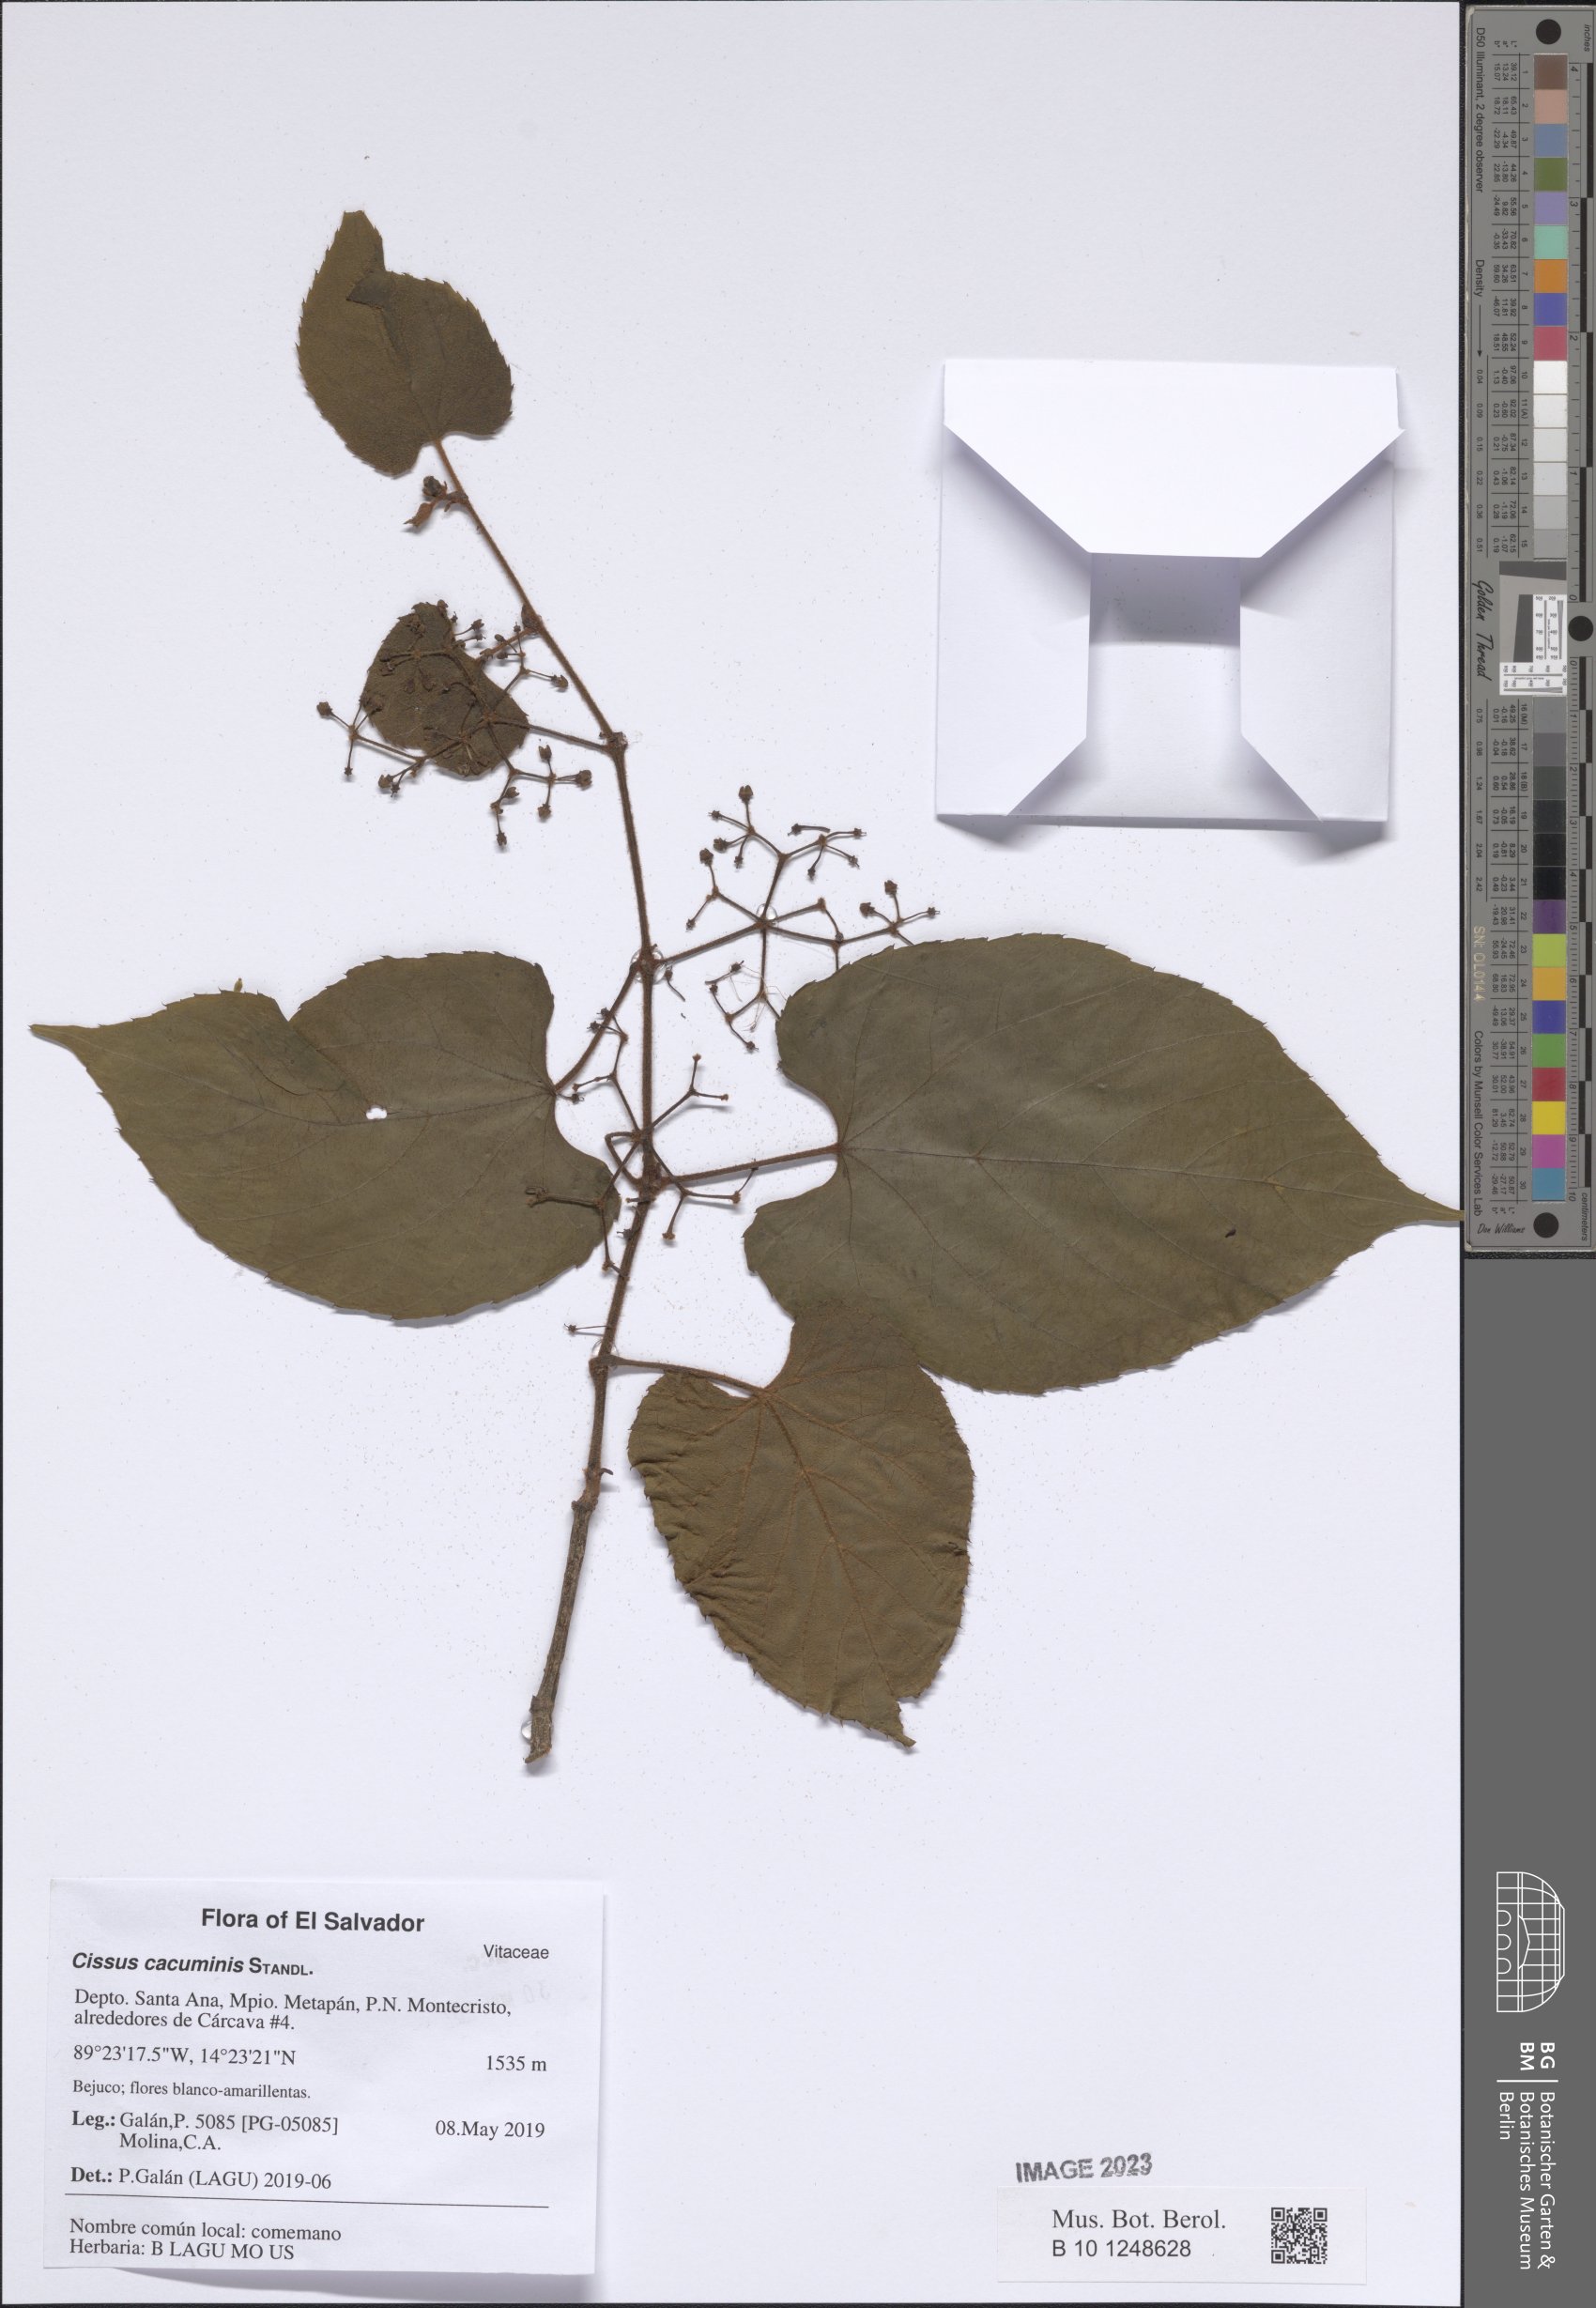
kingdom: Plantae
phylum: Tracheophyta
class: Magnoliopsida
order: Vitales
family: Vitaceae
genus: Cissus
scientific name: Cissus cacuminis
